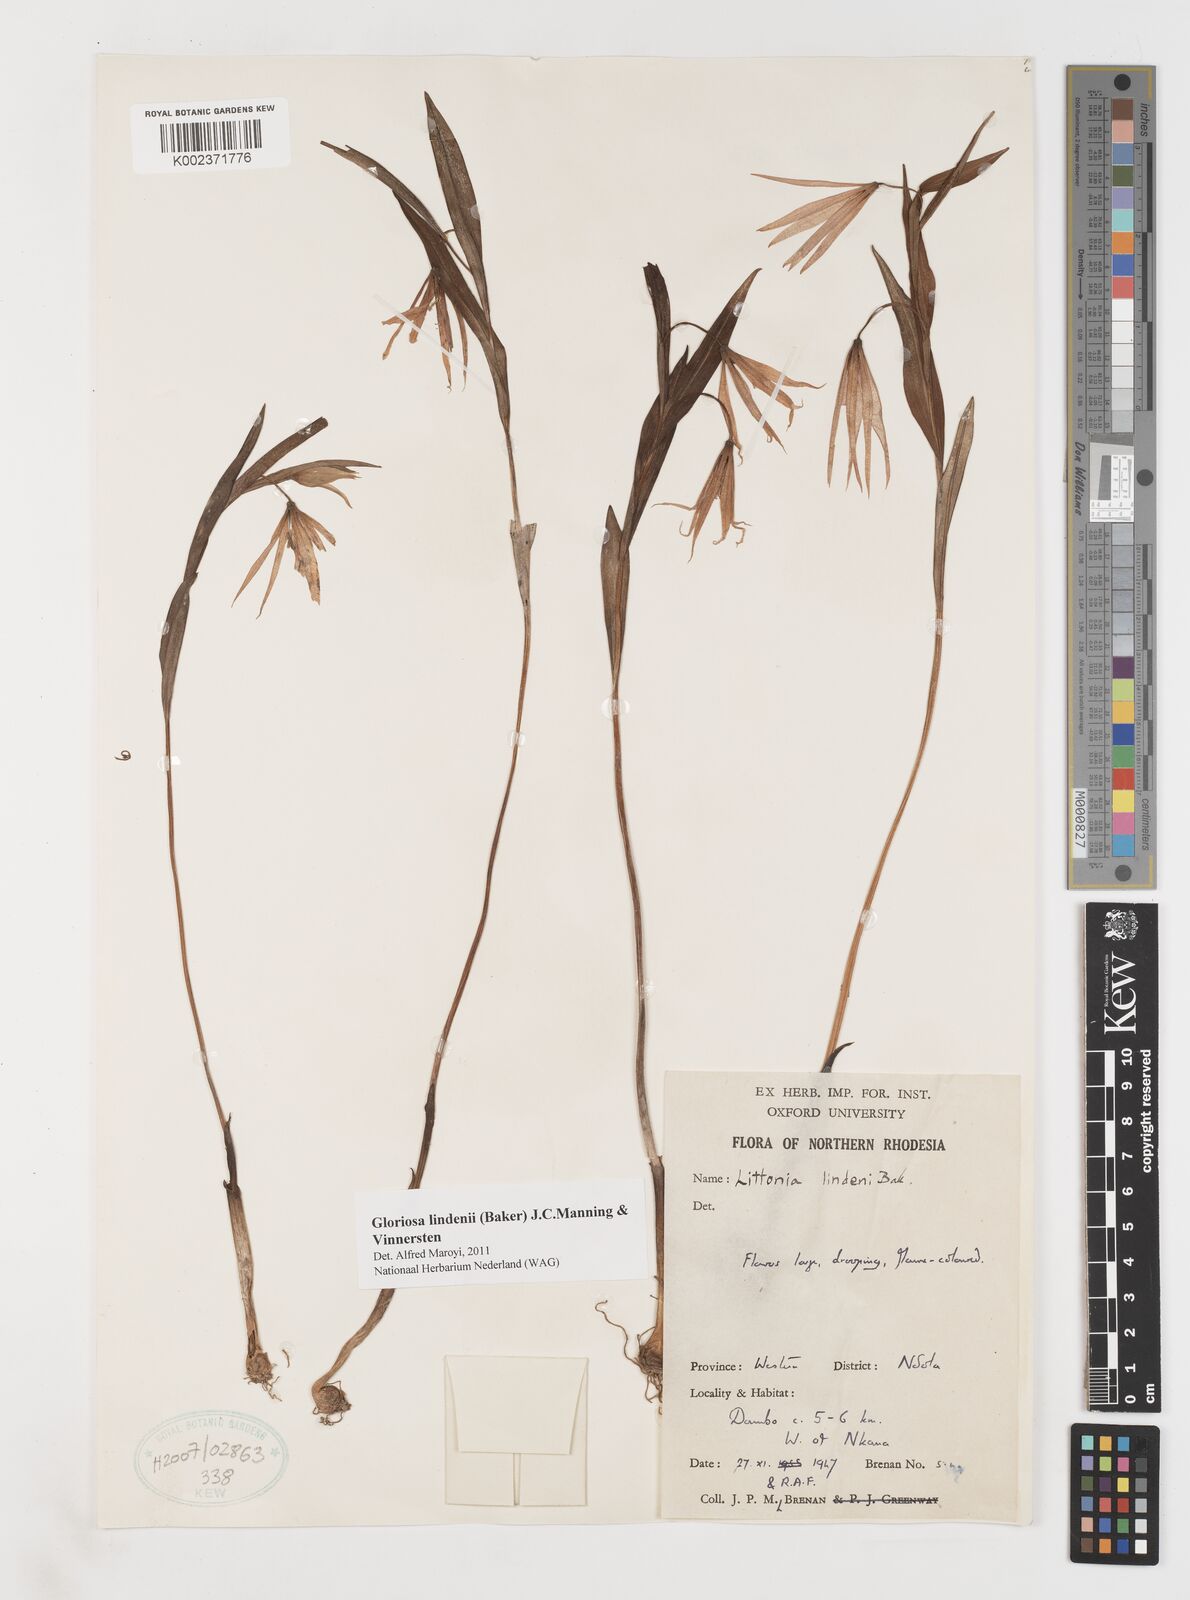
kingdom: Plantae
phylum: Tracheophyta
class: Liliopsida
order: Liliales
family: Colchicaceae
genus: Gloriosa
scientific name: Gloriosa lindenii
